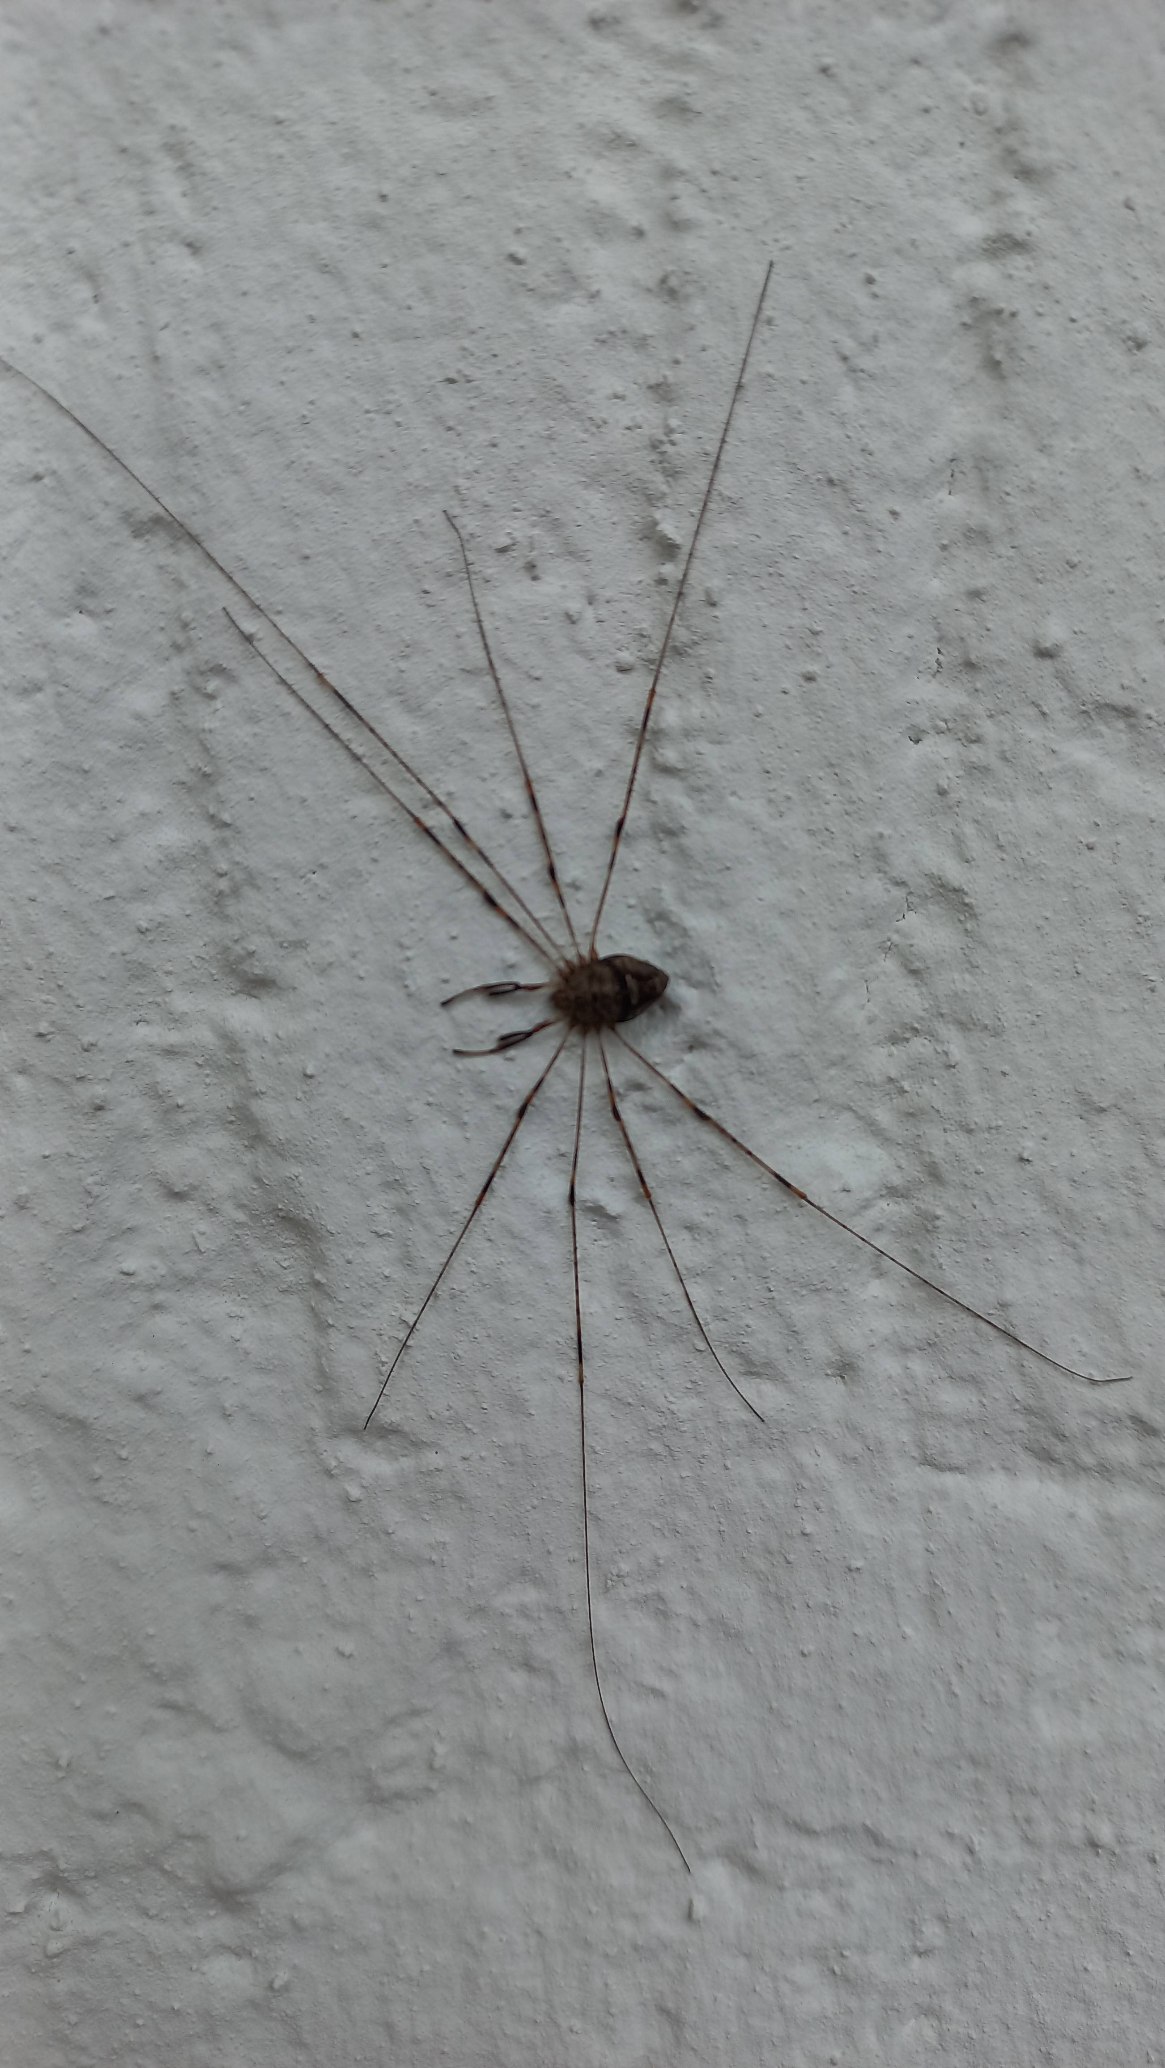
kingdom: Animalia
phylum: Arthropoda
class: Arachnida
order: Opiliones
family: Phalangiidae
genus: Dicranopalpus
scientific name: Dicranopalpus ramosus
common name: Gaffelmejer
